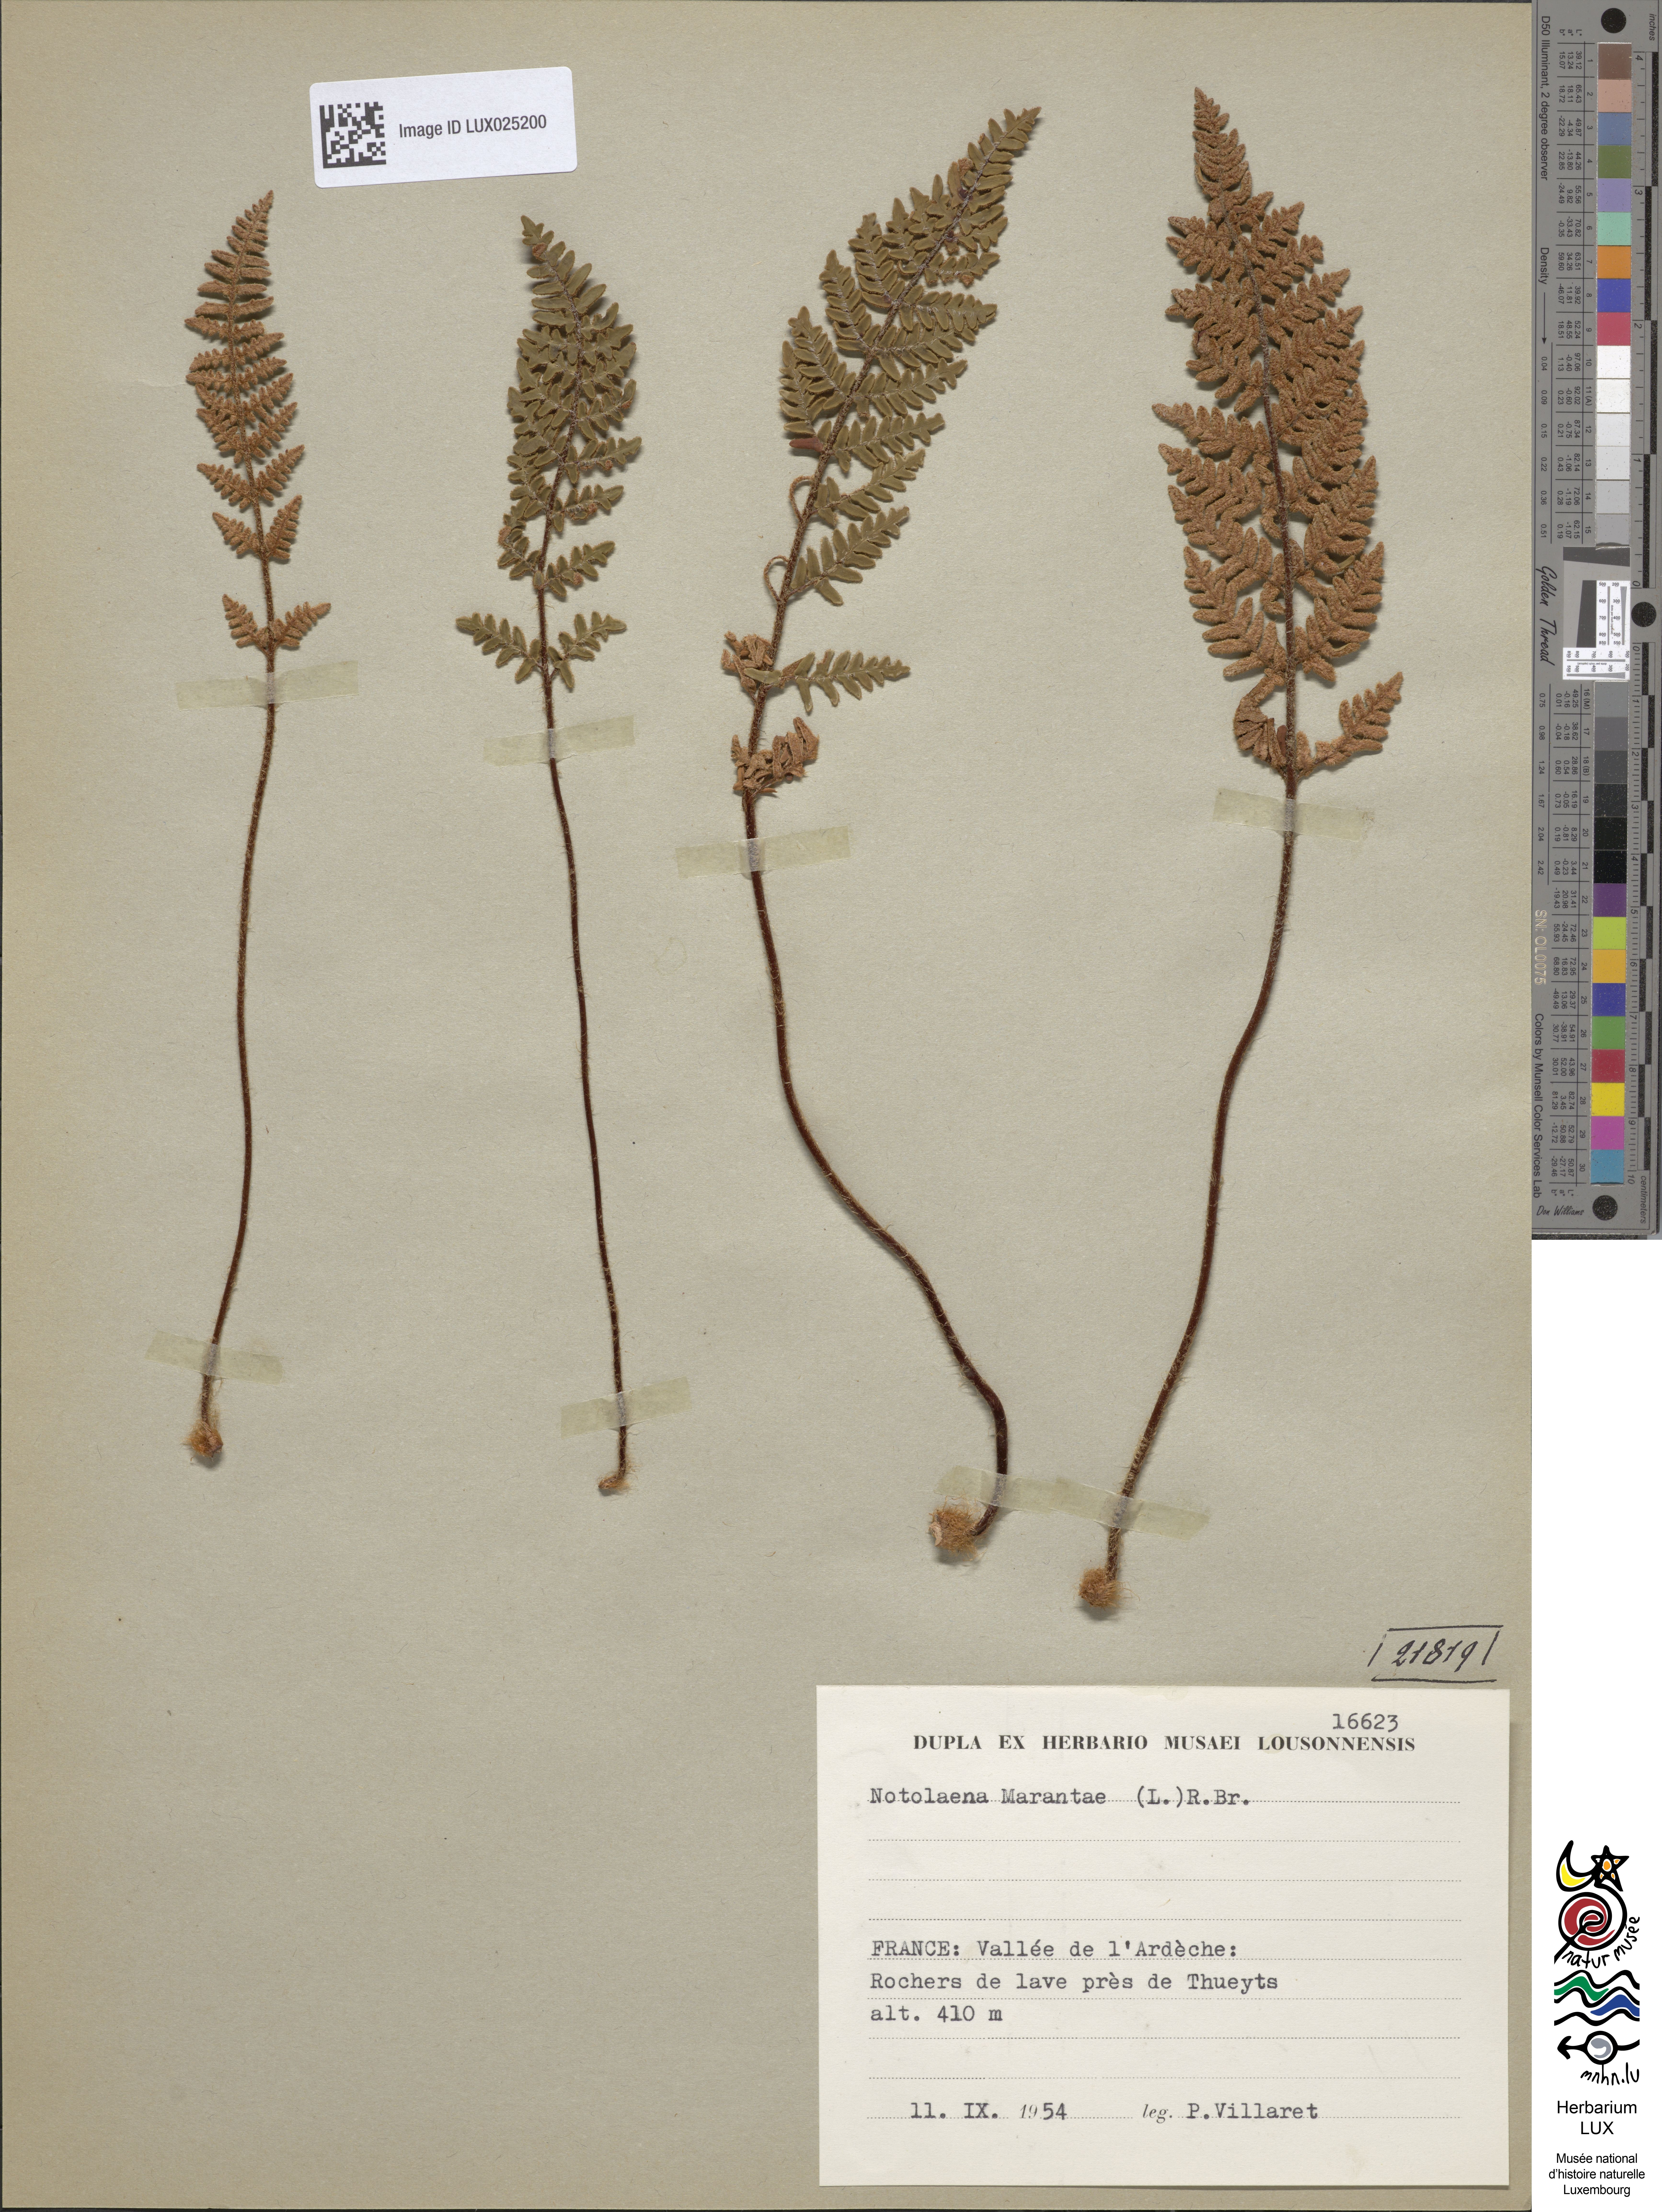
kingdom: Plantae
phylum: Tracheophyta
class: Polypodiopsida
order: Polypodiales
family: Pteridaceae
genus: Paragymnopteris
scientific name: Paragymnopteris marantae
